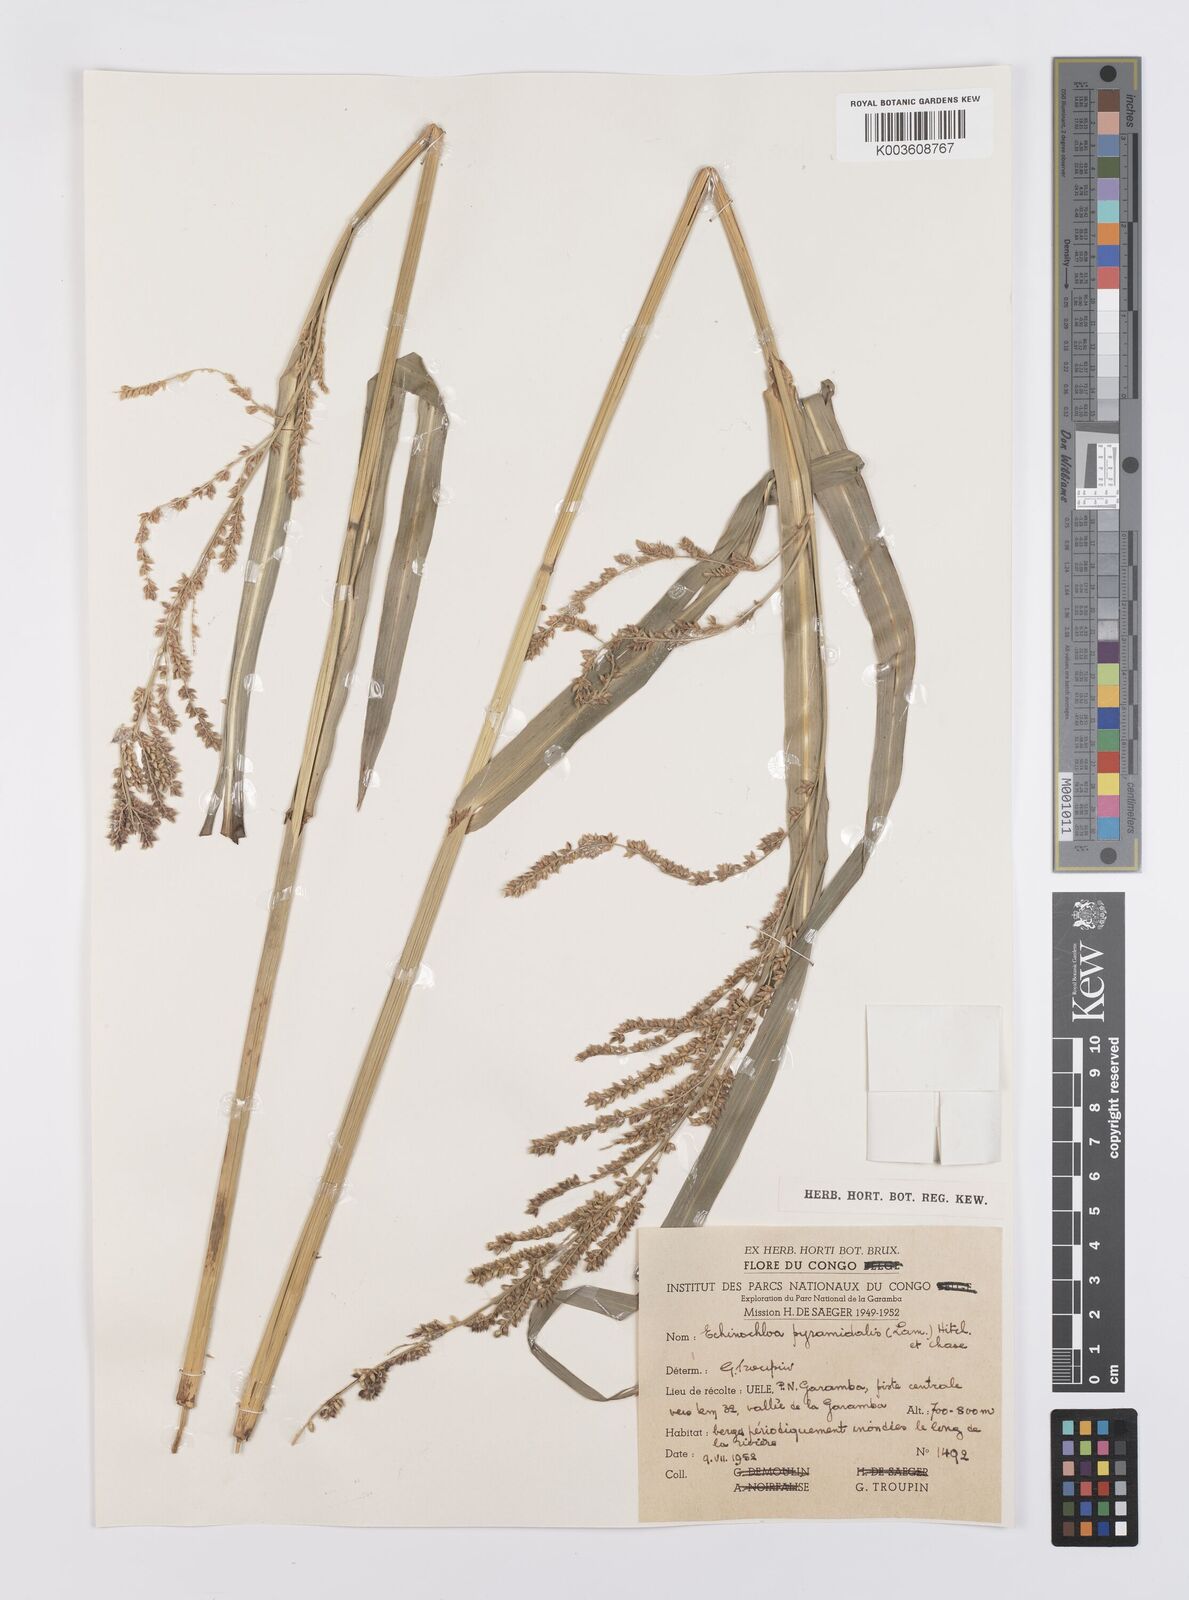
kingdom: Plantae
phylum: Tracheophyta
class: Liliopsida
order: Poales
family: Poaceae
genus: Echinochloa
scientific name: Echinochloa pyramidalis
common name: Antelope grass
